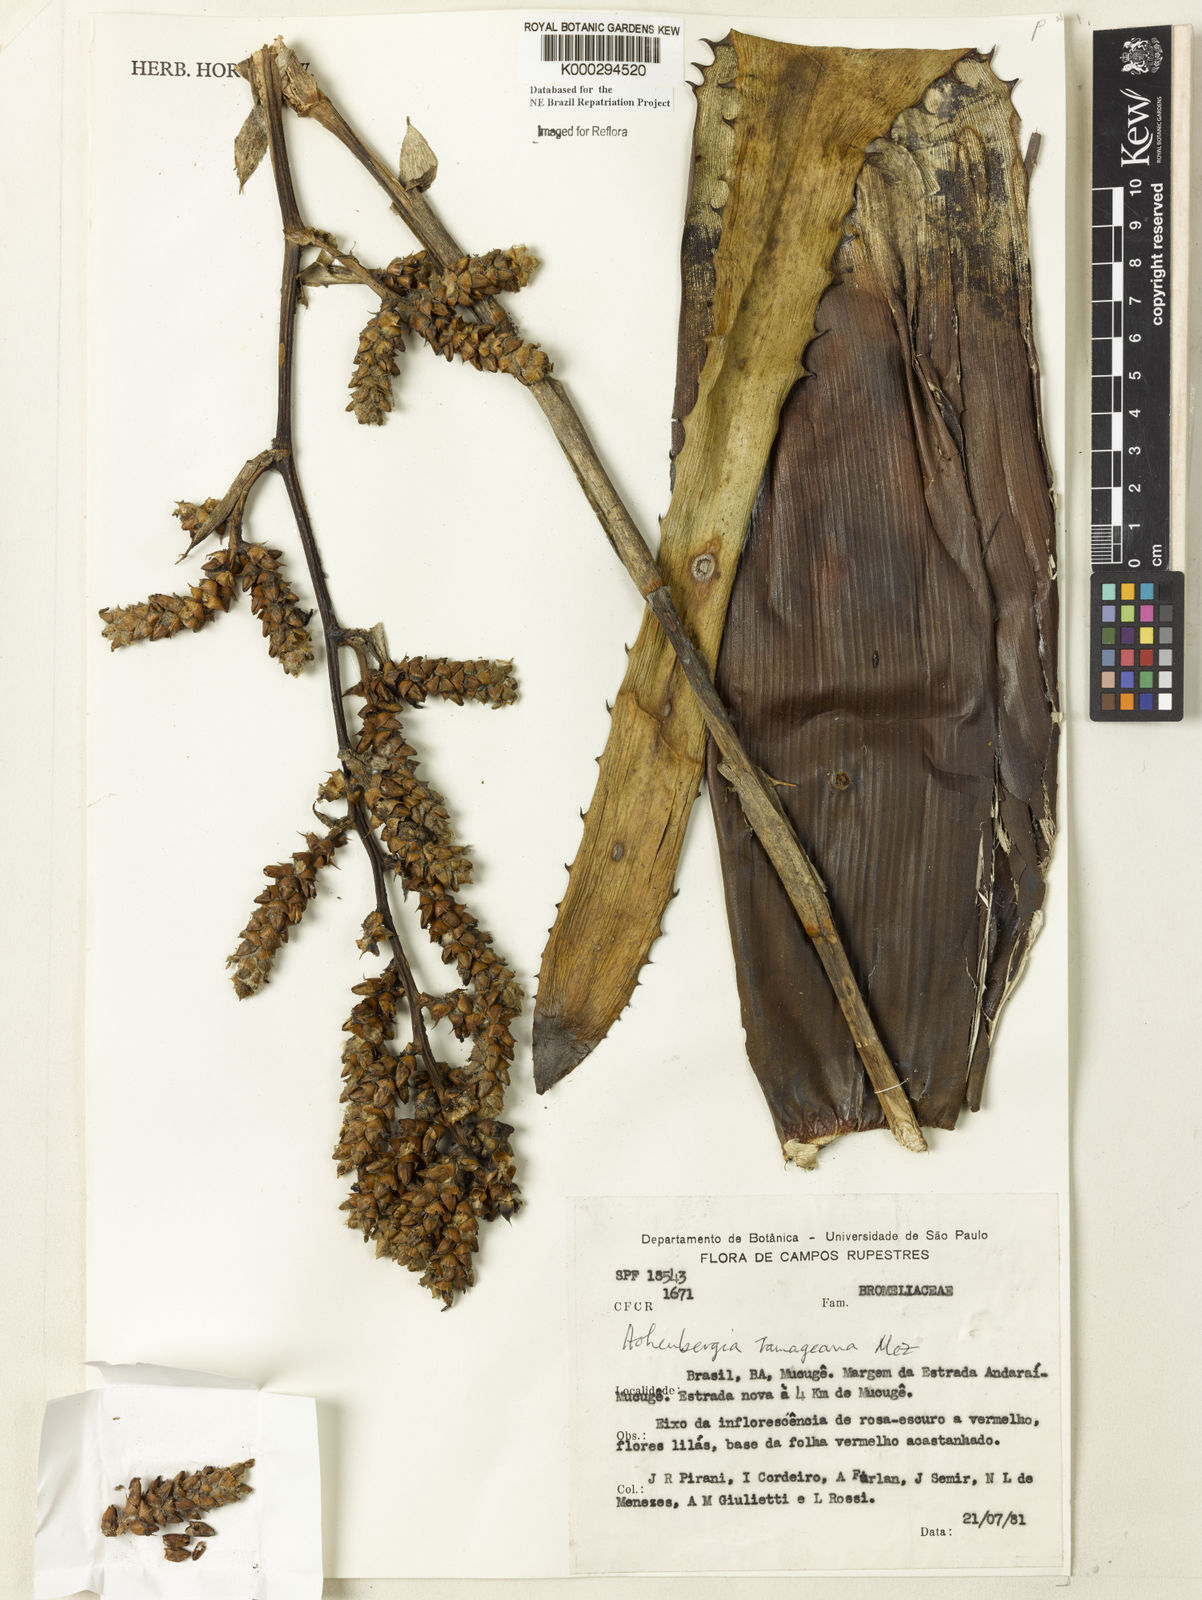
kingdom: Plantae
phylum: Tracheophyta
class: Liliopsida
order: Poales
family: Bromeliaceae
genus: Hohenbergia
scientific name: Hohenbergia ridleyi
